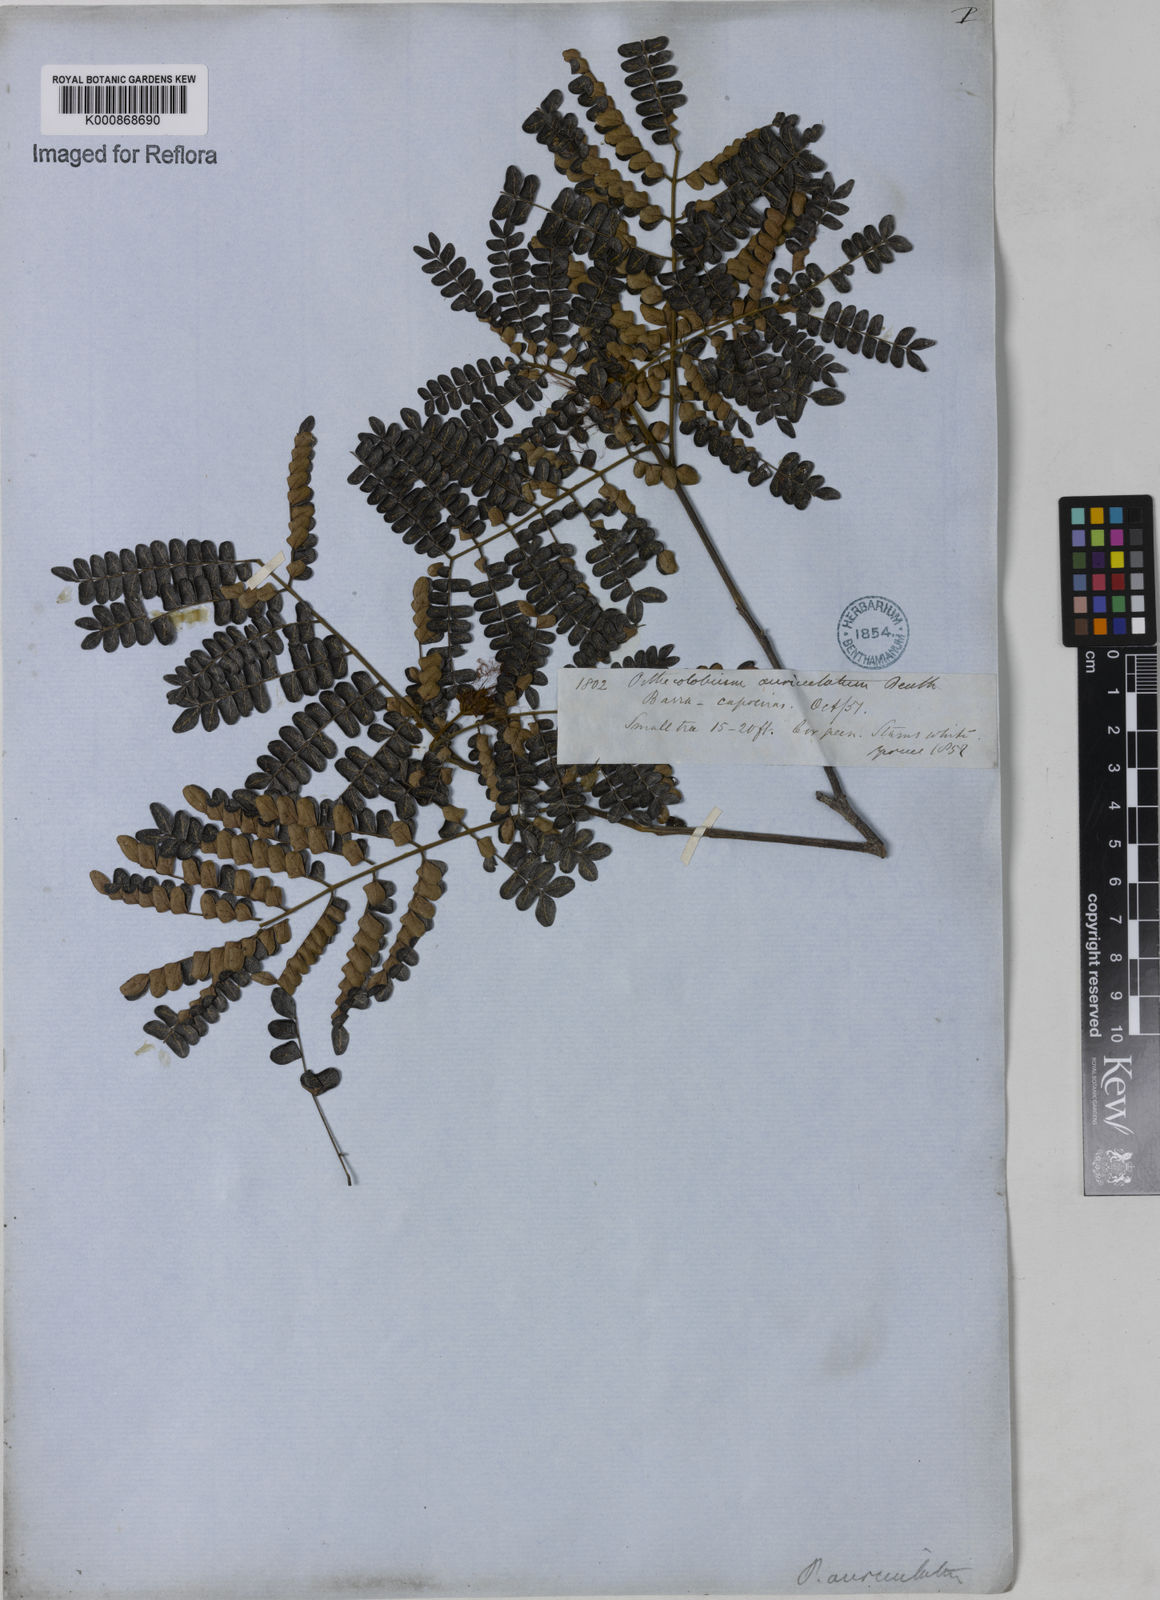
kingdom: Plantae
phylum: Tracheophyta
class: Magnoliopsida
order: Fabales
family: Fabaceae
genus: Jupunba
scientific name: Jupunba auriculata
